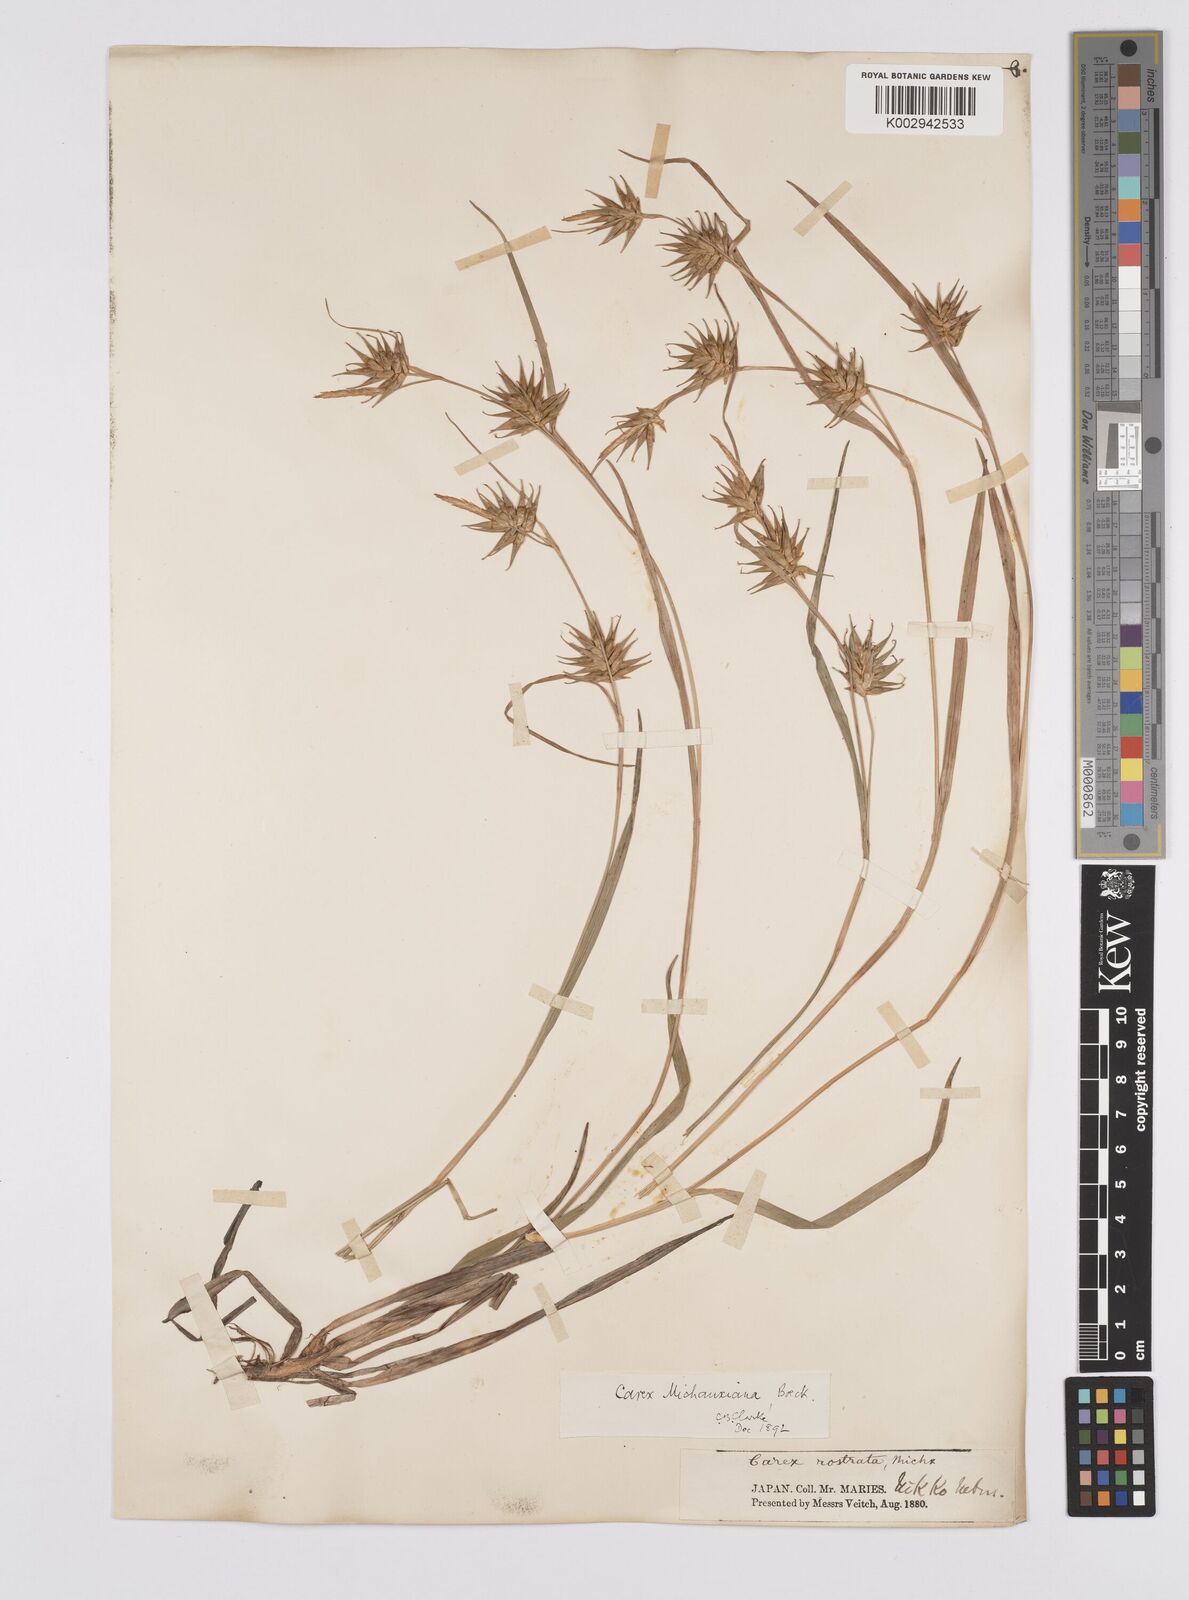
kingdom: Plantae
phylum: Tracheophyta
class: Liliopsida
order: Poales
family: Cyperaceae
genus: Carex
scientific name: Carex michauxiana
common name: Michaux's sedge
